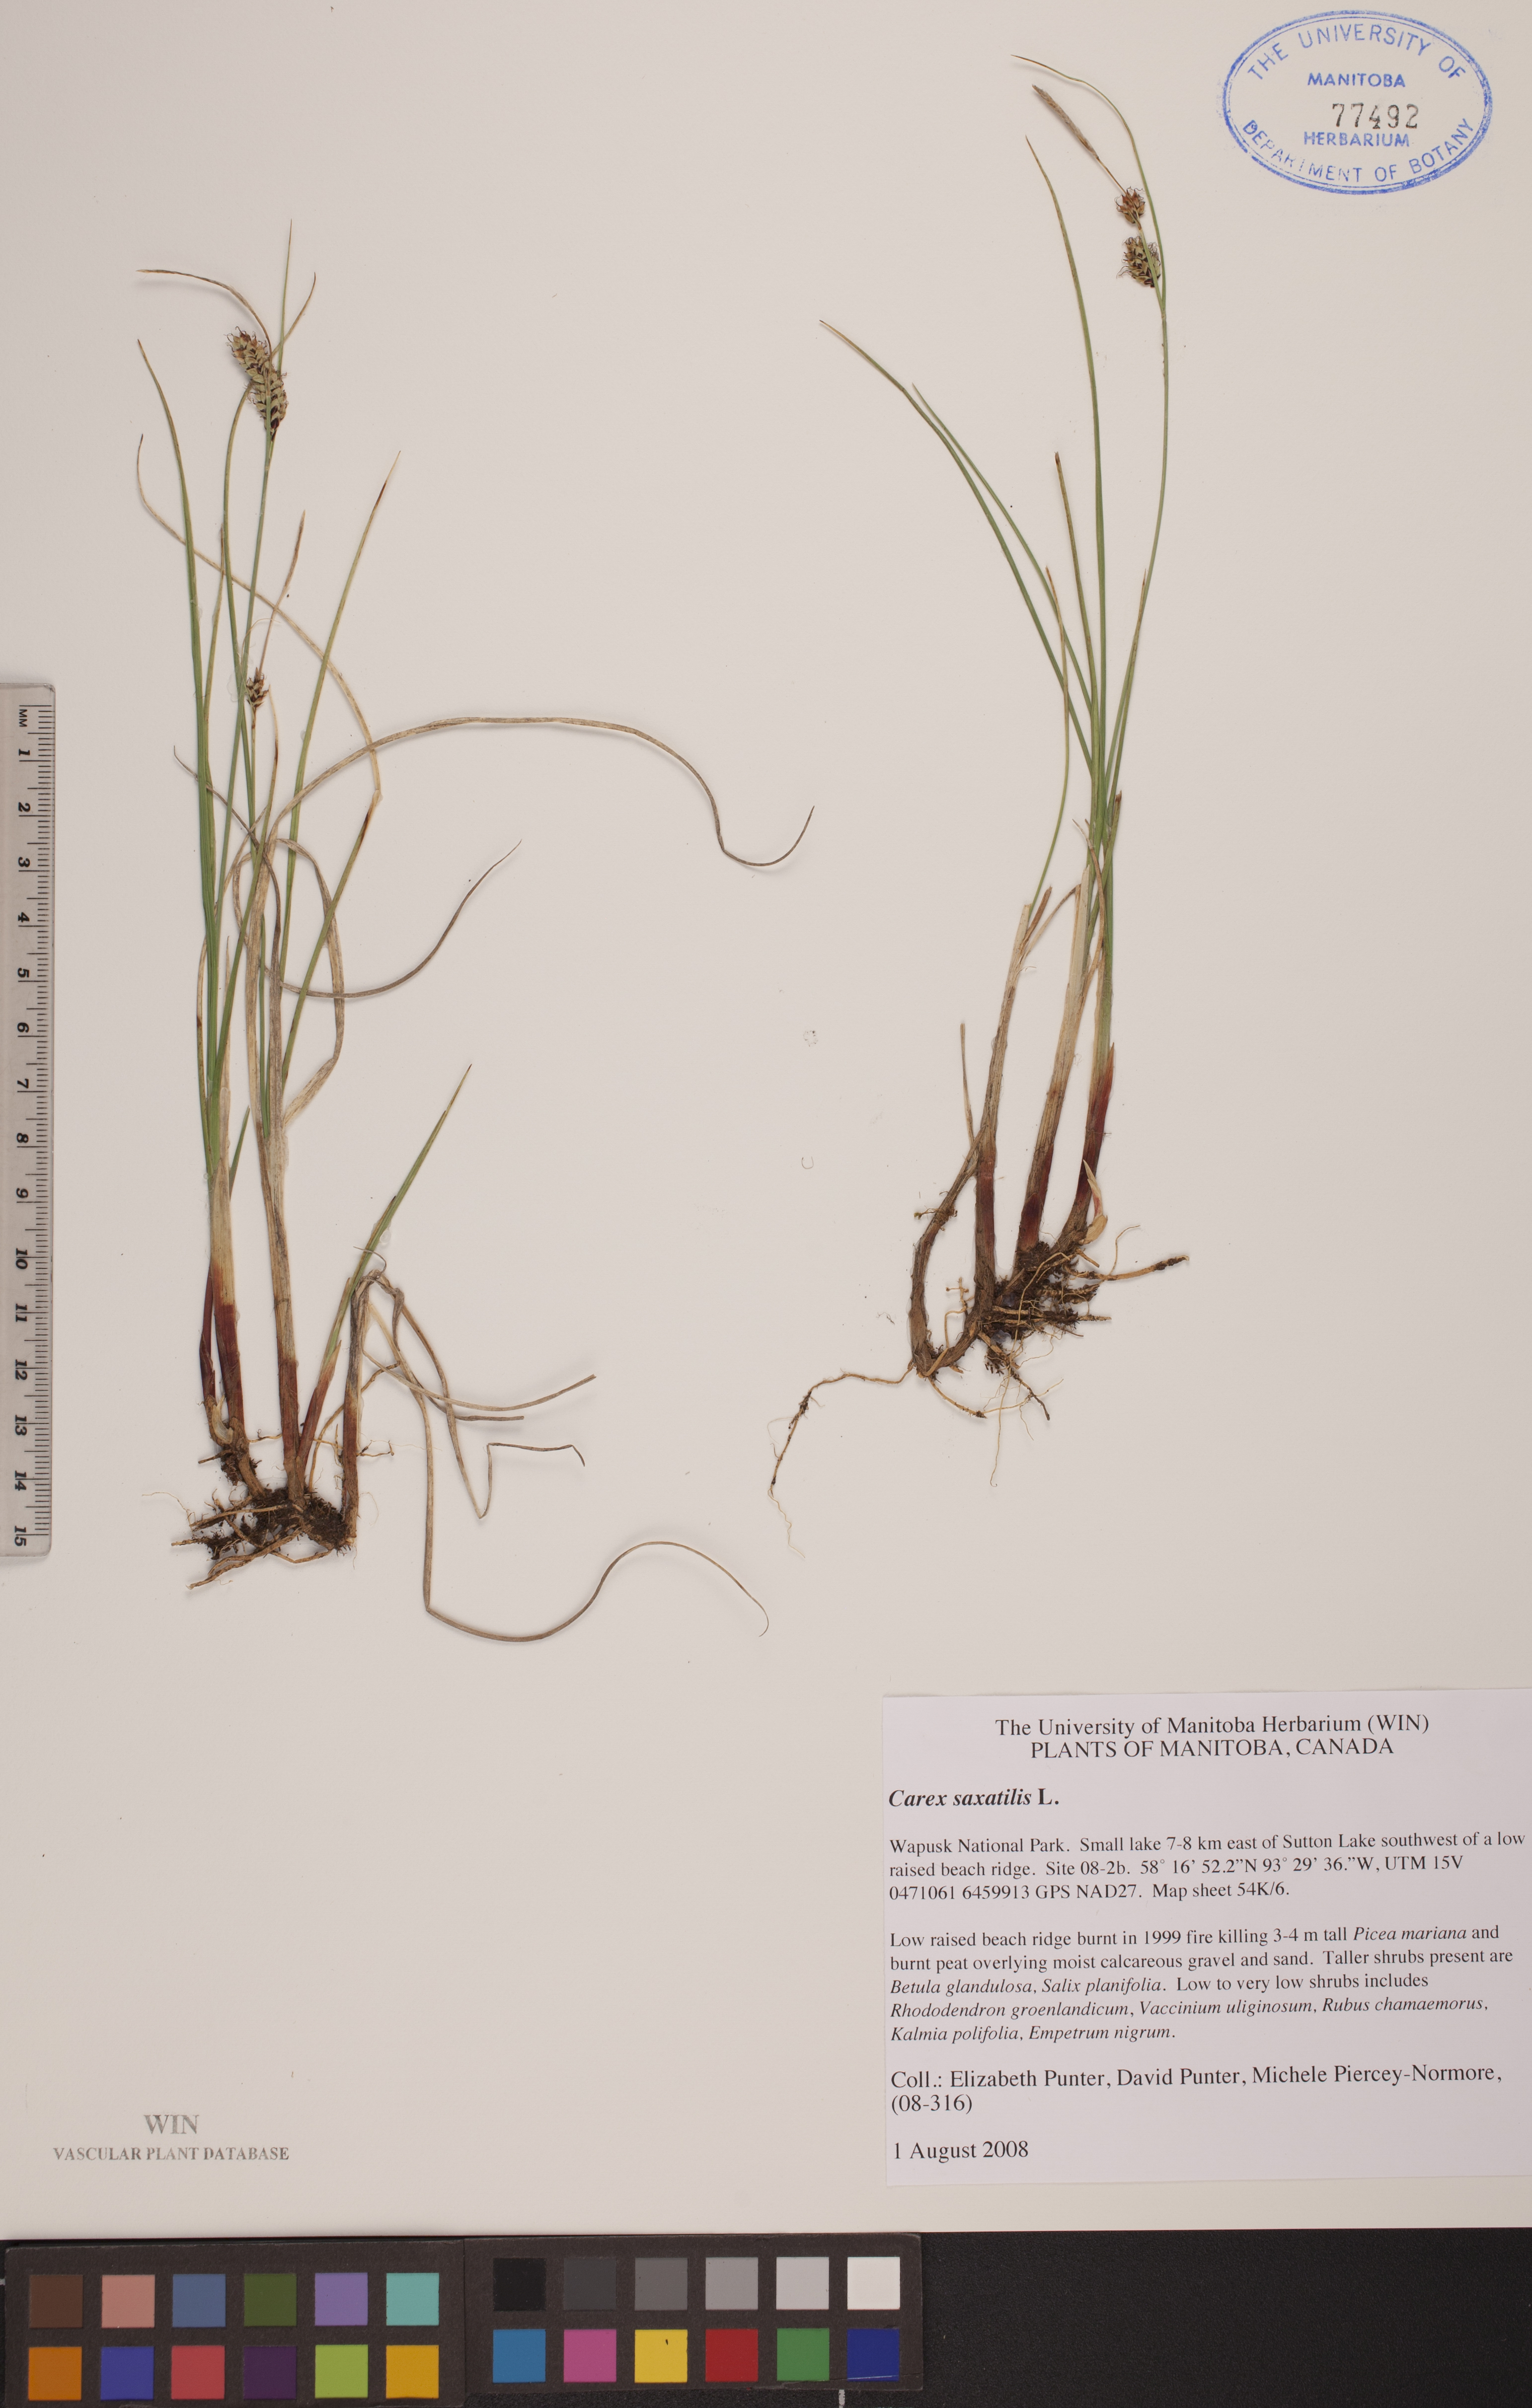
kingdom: Plantae
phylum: Tracheophyta
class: Liliopsida
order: Poales
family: Cyperaceae
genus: Carex
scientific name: Carex saxatilis
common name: Russet sedge
